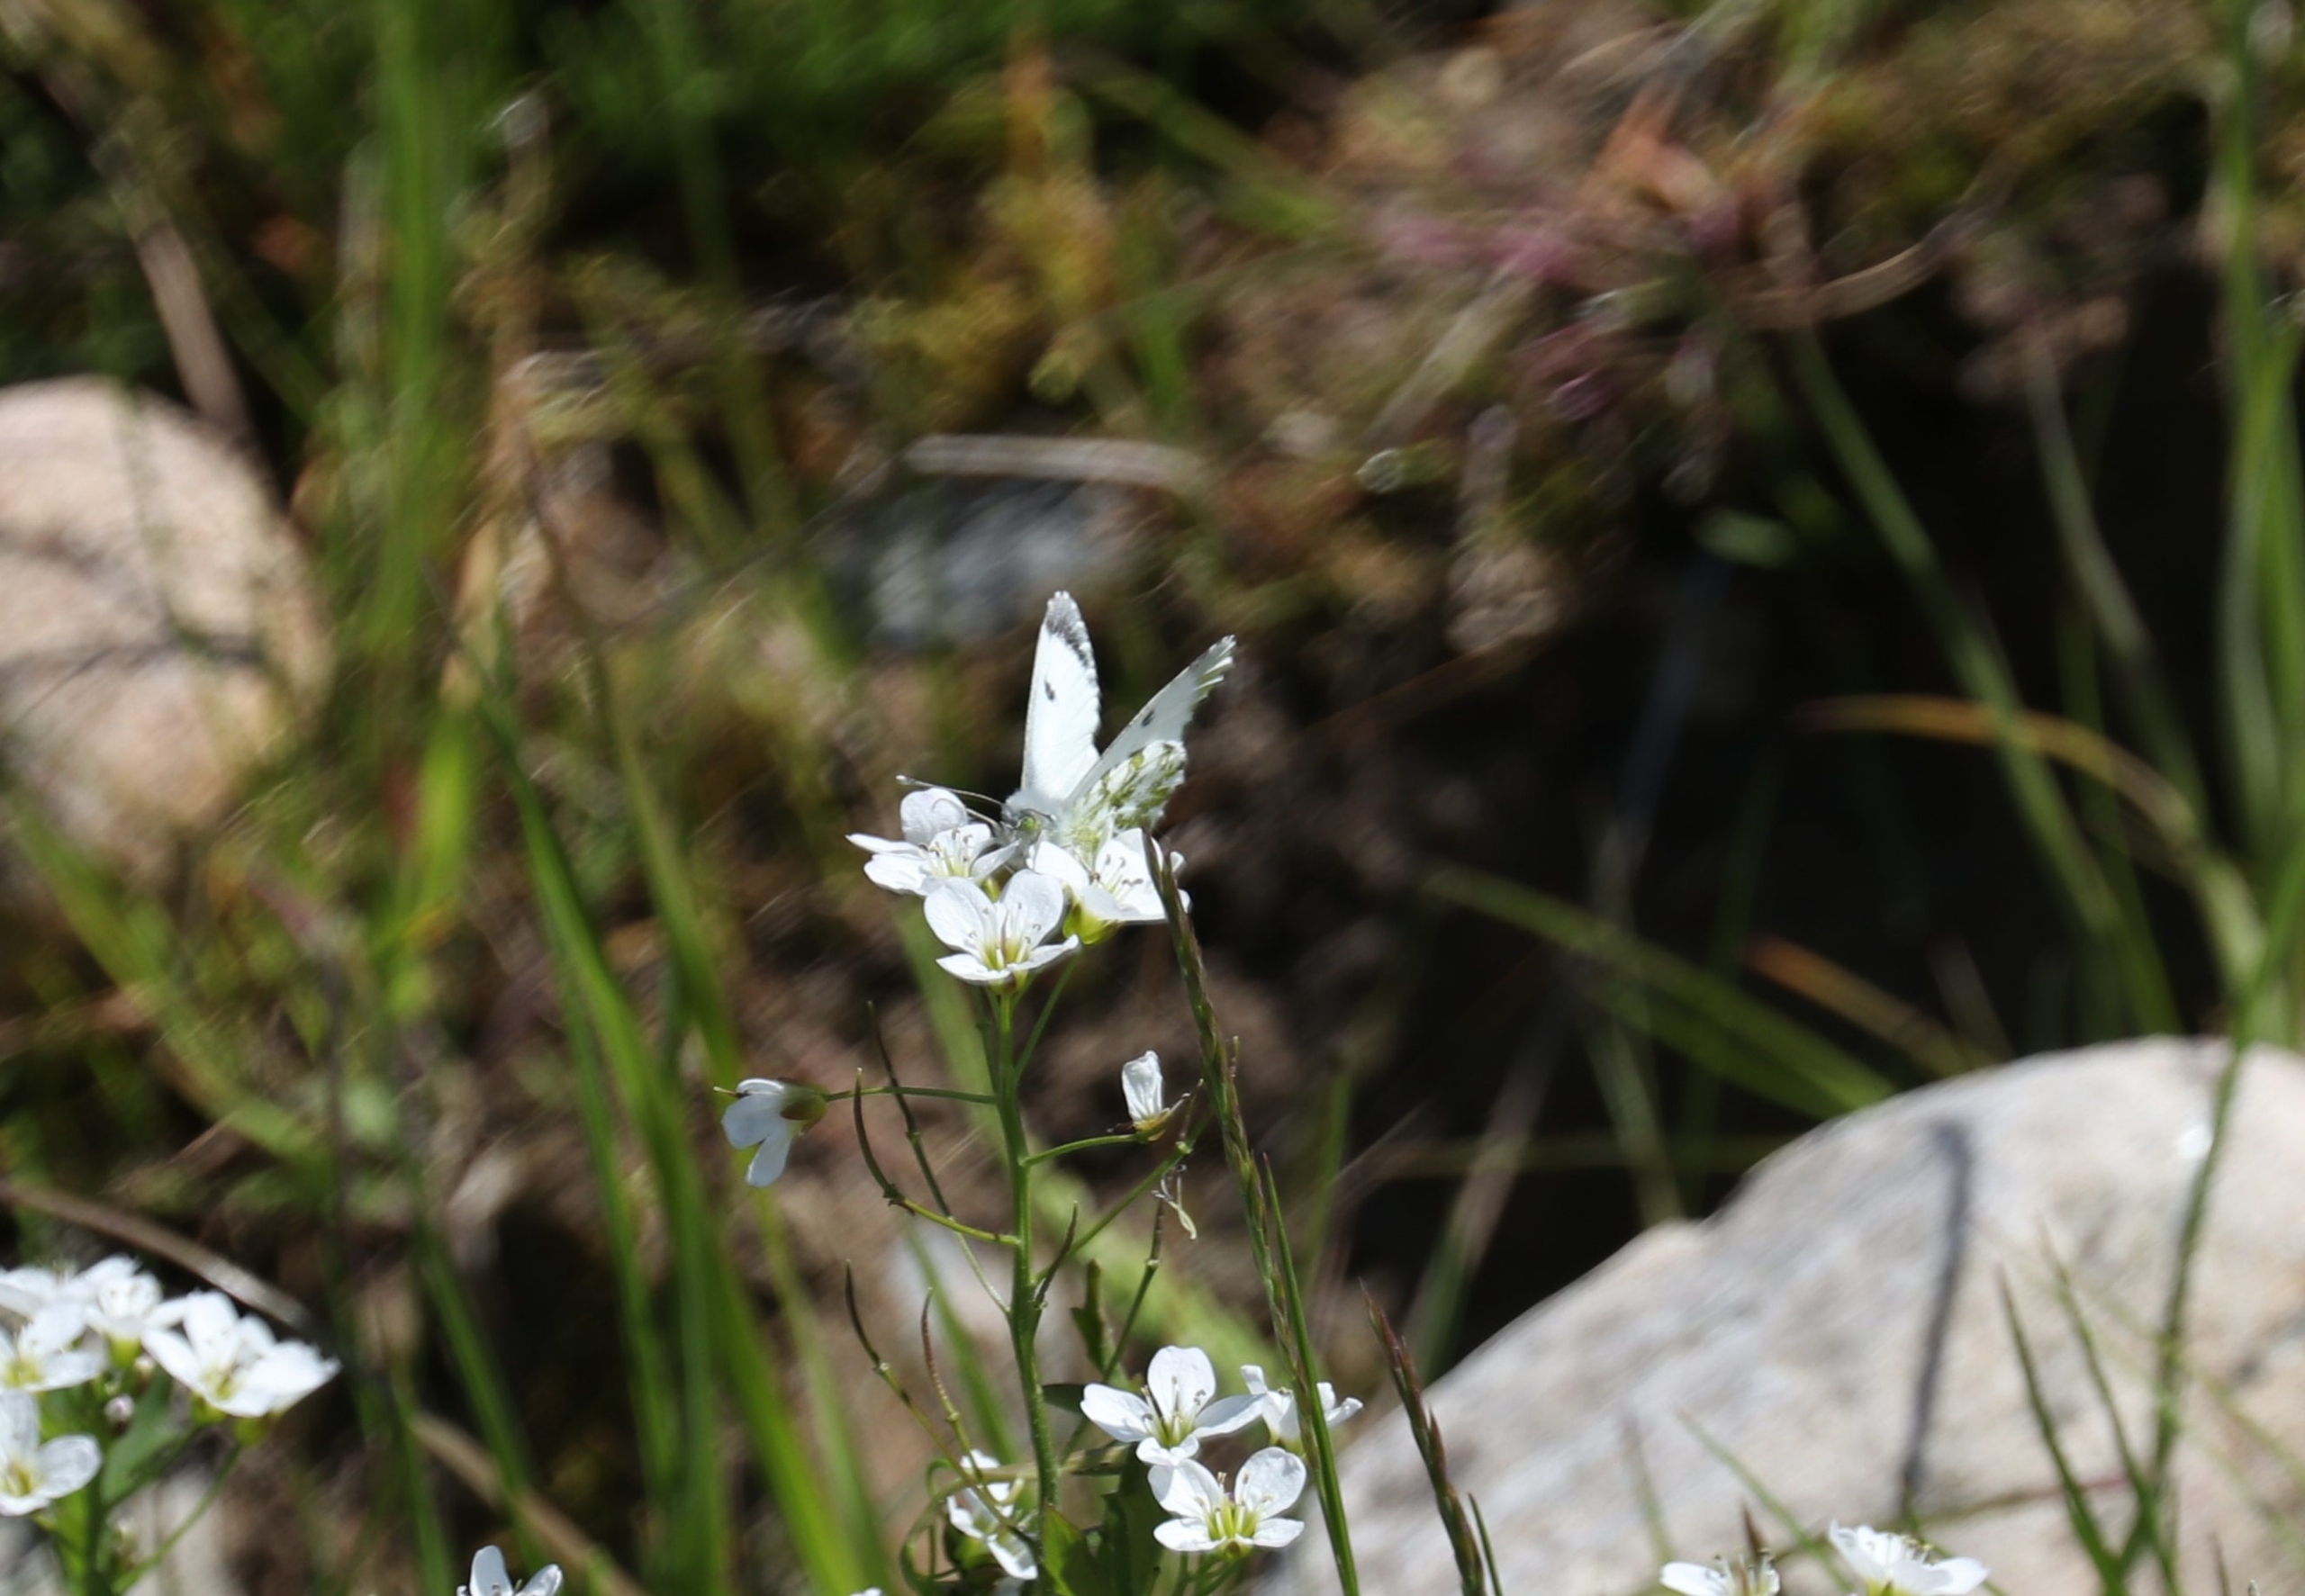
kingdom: Animalia
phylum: Arthropoda
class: Insecta
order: Lepidoptera
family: Pieridae
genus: Anthocharis
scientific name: Anthocharis cardamines
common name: Aurora
